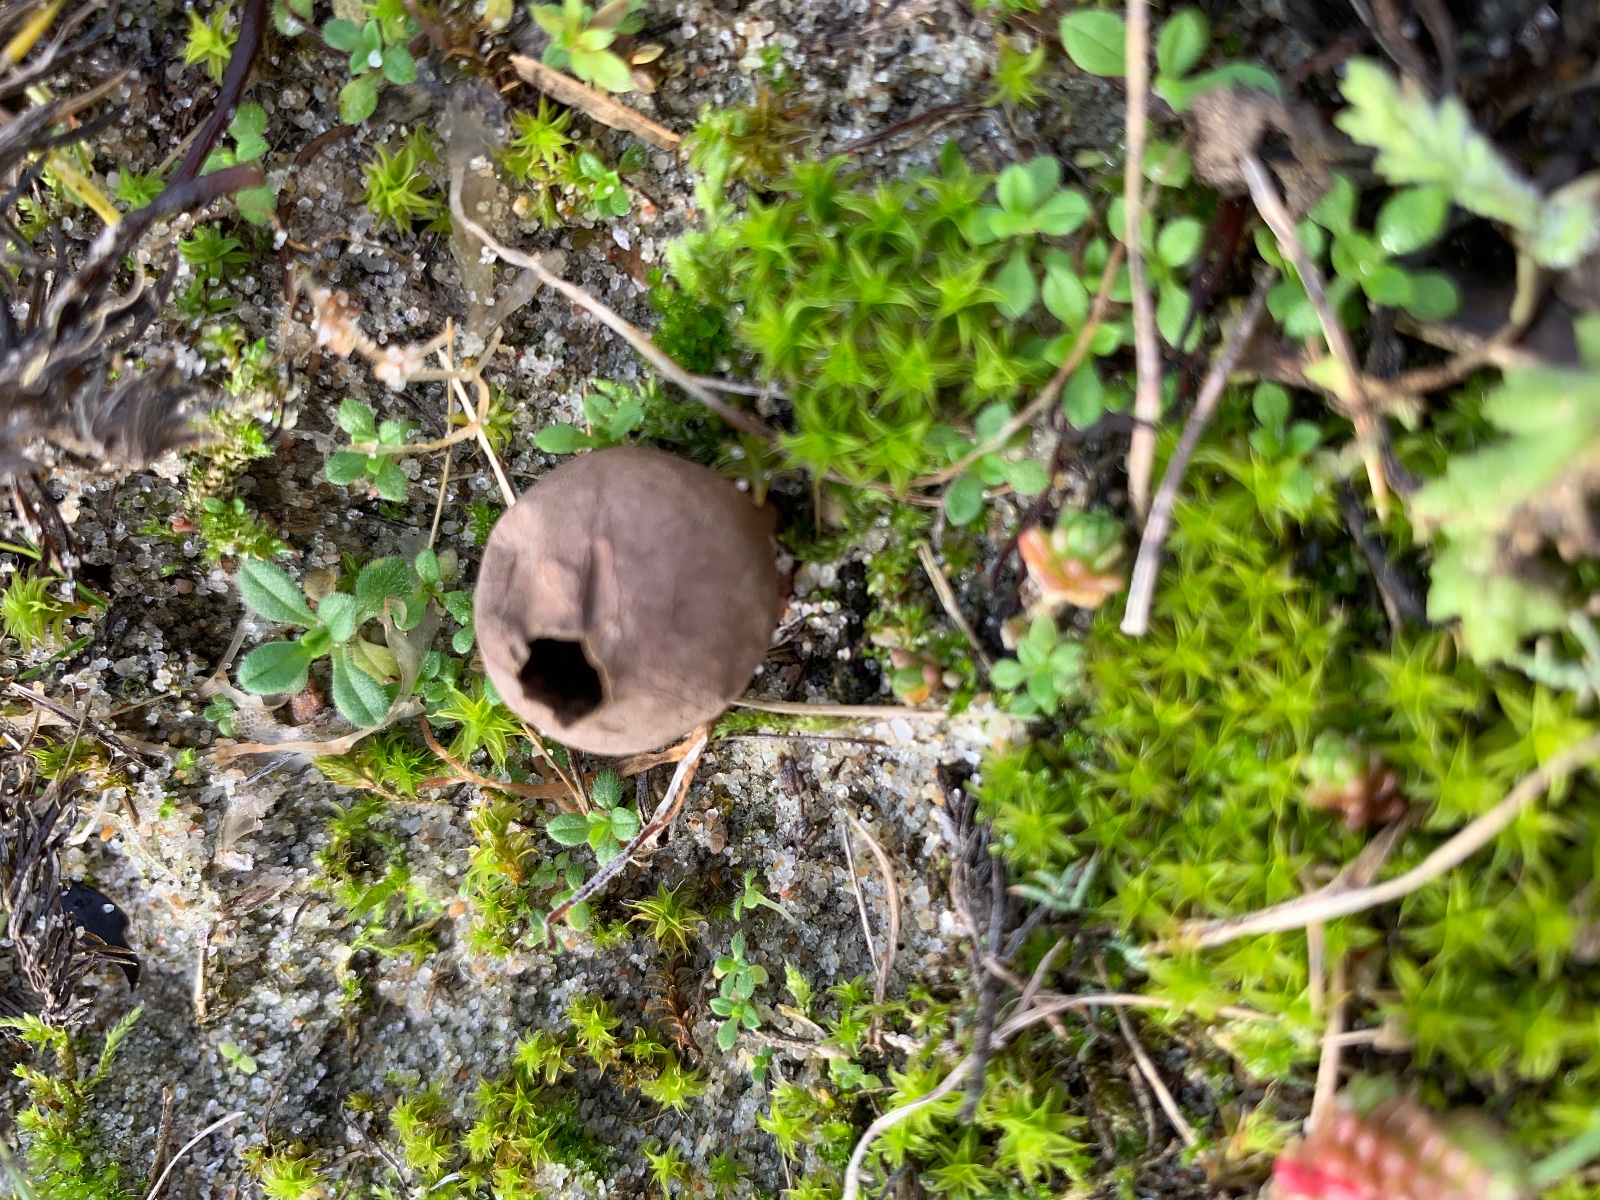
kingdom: Fungi
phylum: Basidiomycota
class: Agaricomycetes
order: Agaricales
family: Lycoperdaceae
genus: Lycoperdon
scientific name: Lycoperdon dermoxanthum
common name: Dwarf puffball
